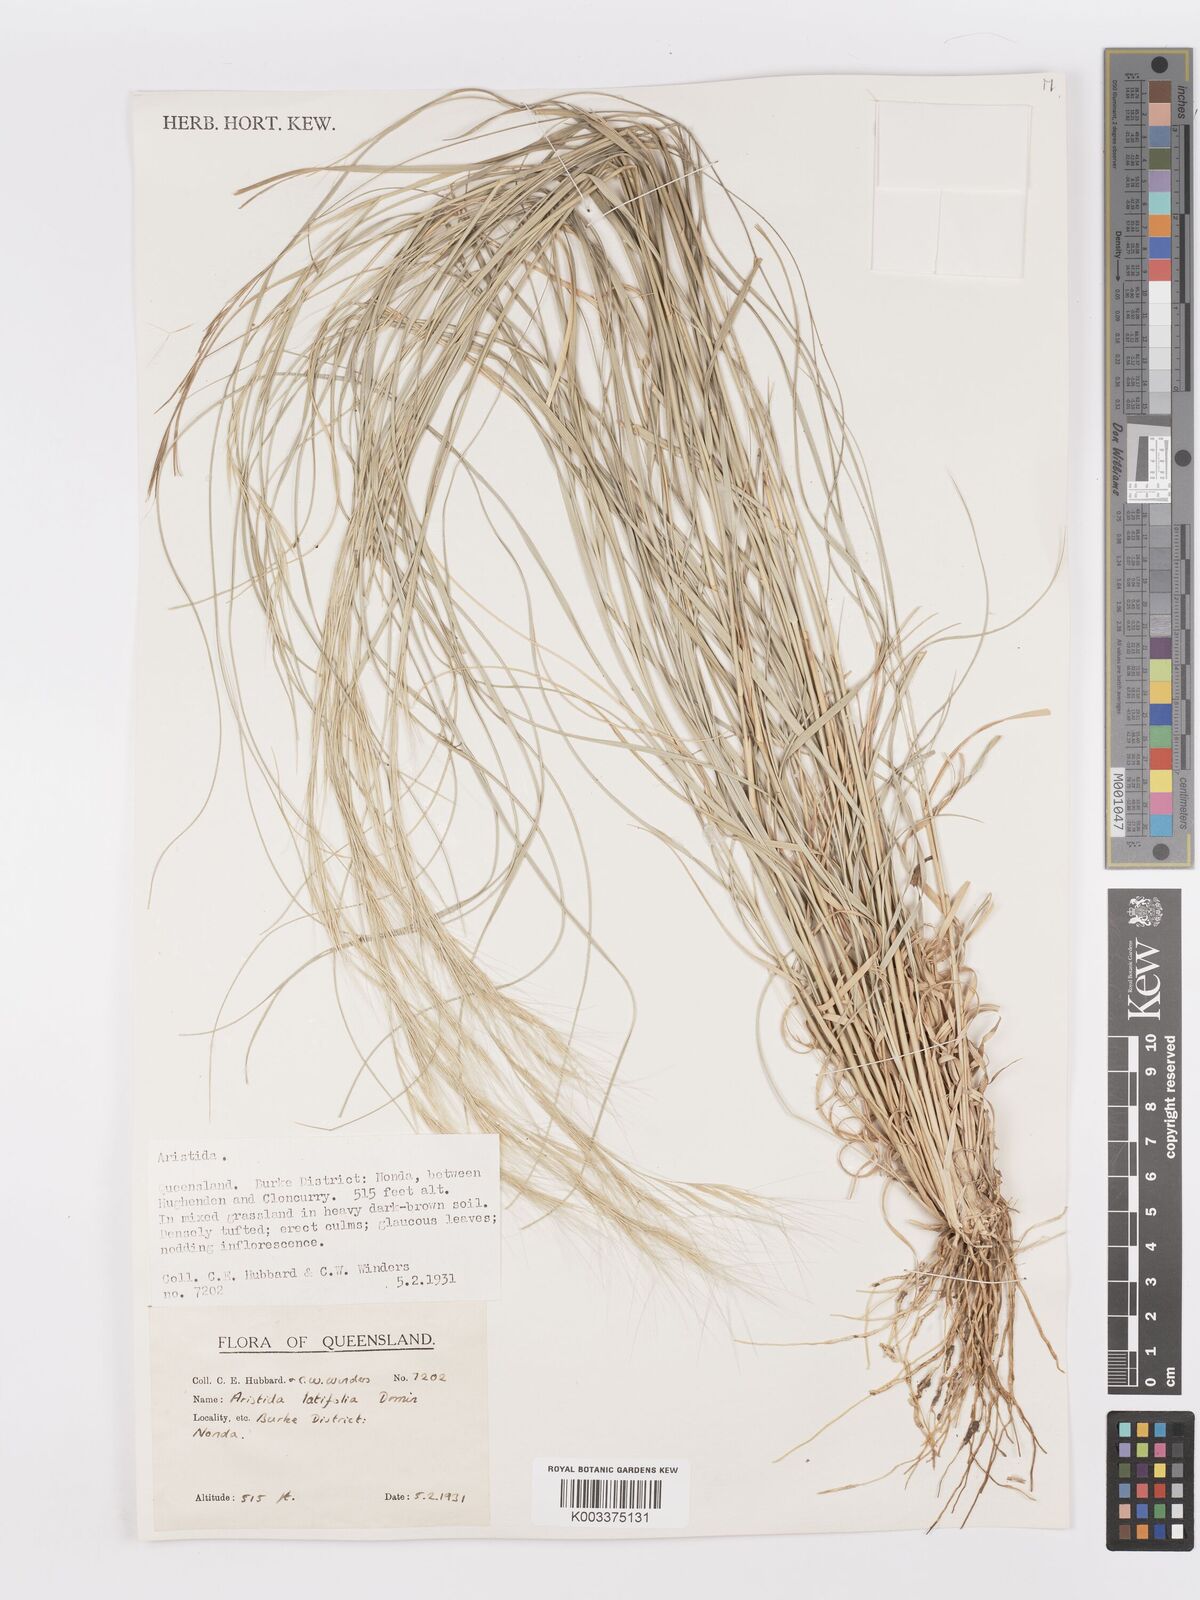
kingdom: Plantae
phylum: Tracheophyta
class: Liliopsida
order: Poales
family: Poaceae
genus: Aristida
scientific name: Aristida latifolia
